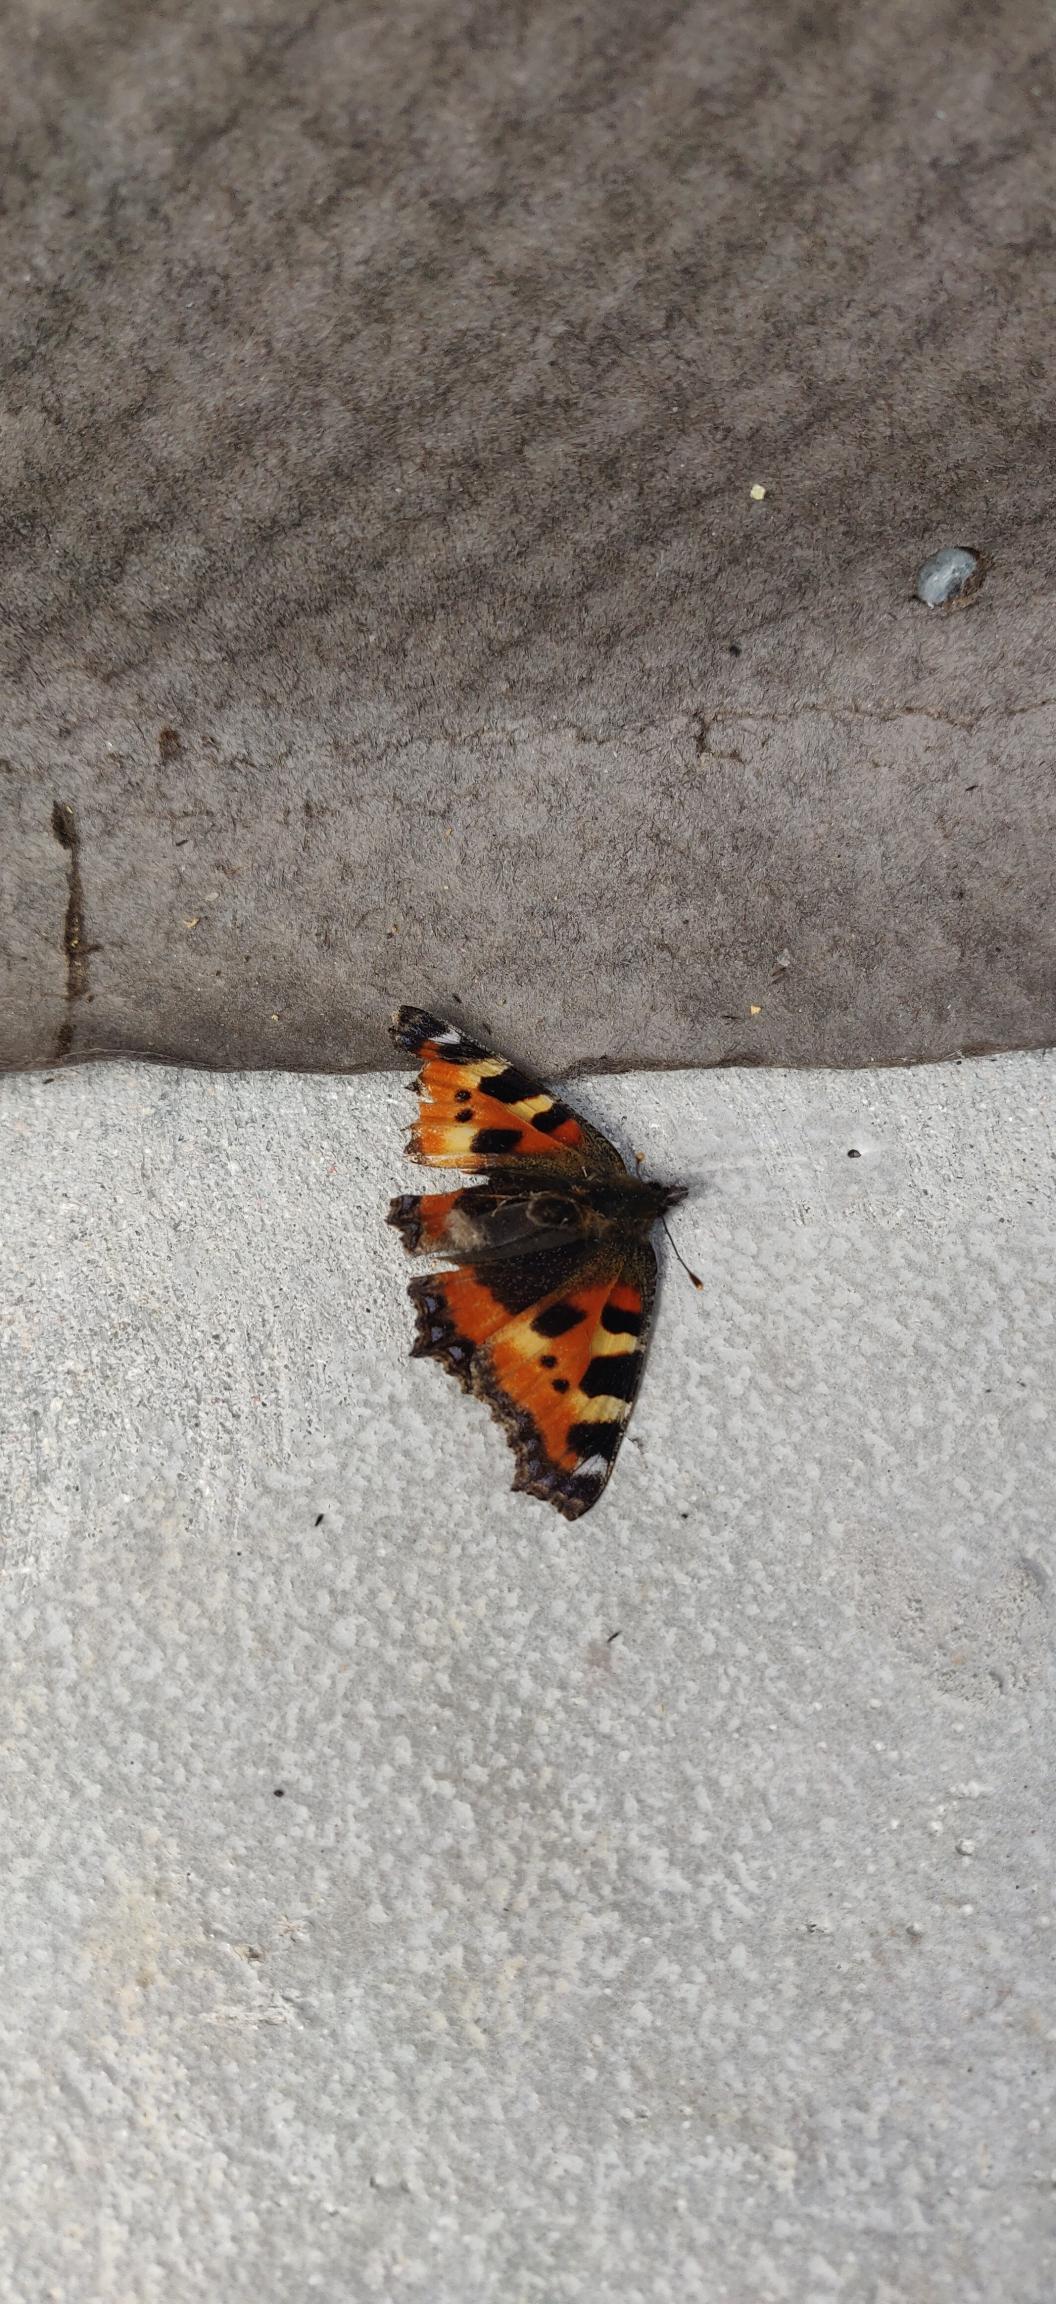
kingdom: Animalia
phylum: Arthropoda
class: Insecta
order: Lepidoptera
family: Nymphalidae
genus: Aglais
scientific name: Aglais urticae
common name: Nældens takvinge
